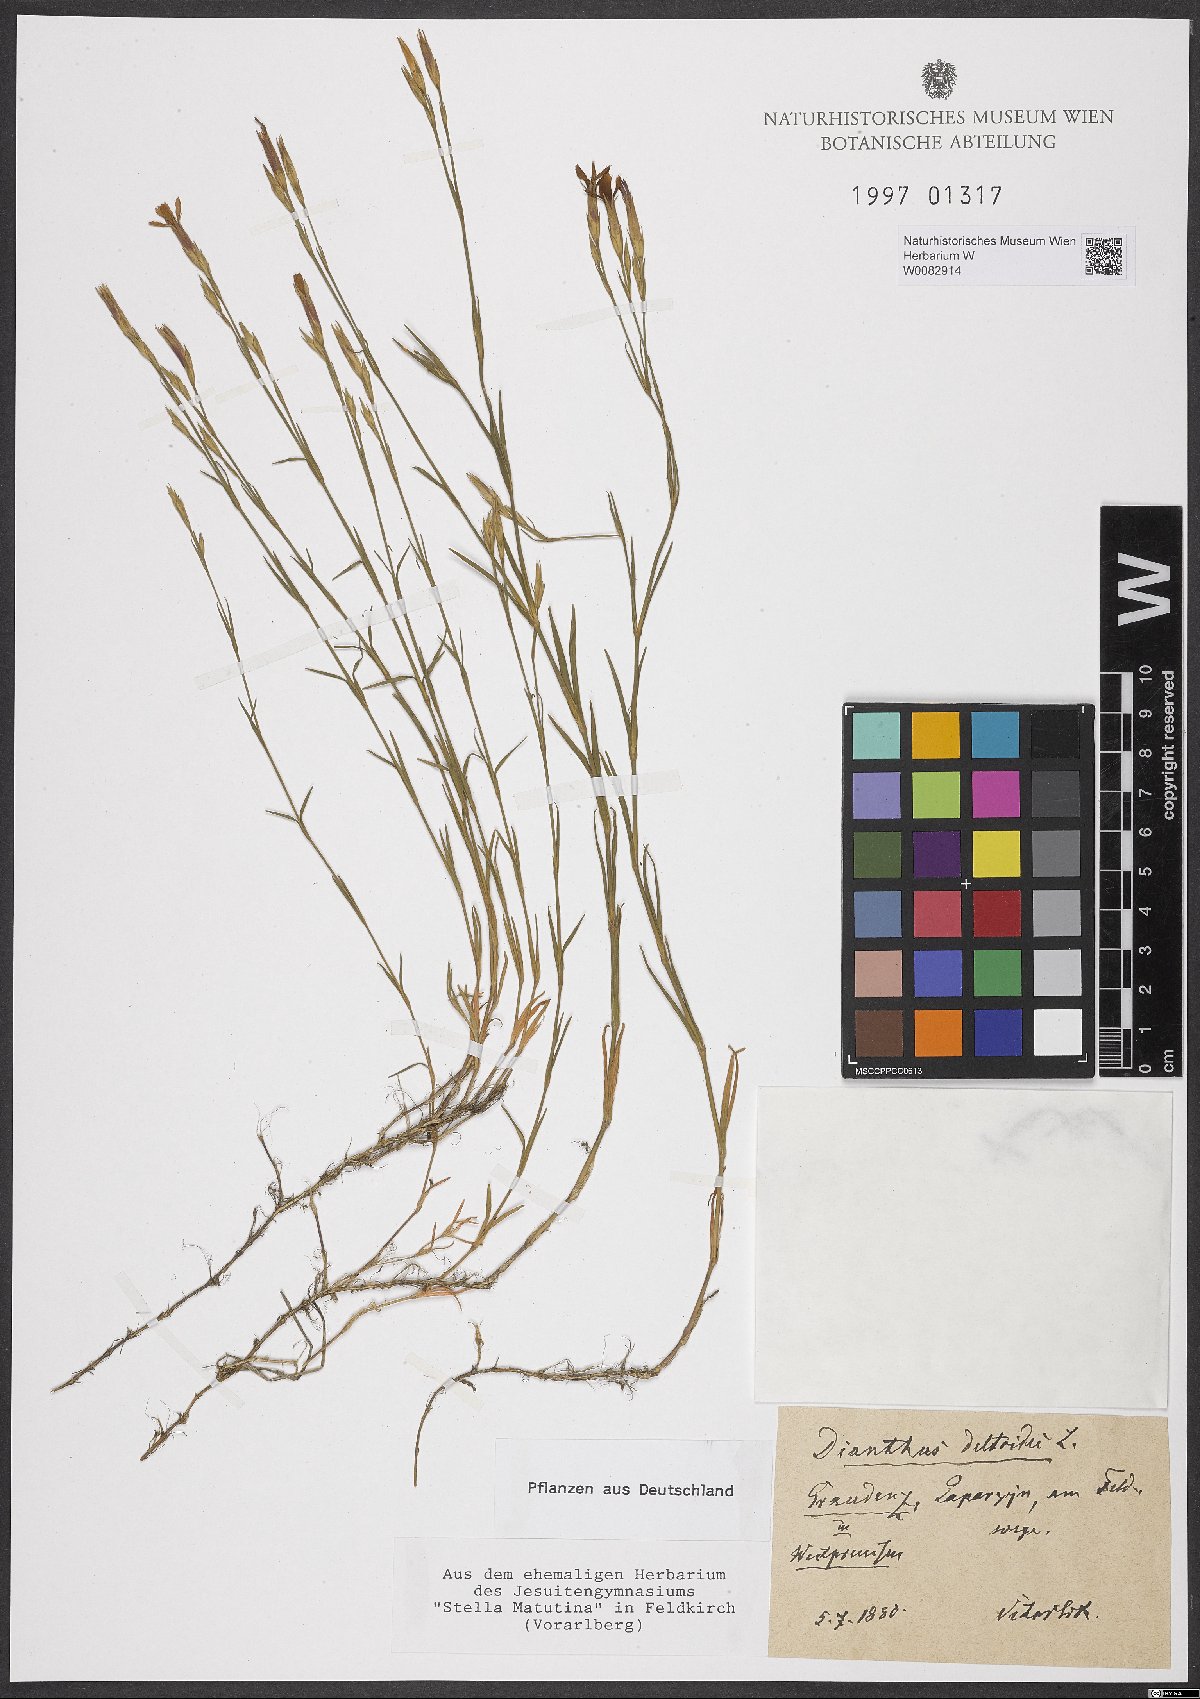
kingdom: Plantae
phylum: Tracheophyta
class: Magnoliopsida
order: Caryophyllales
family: Caryophyllaceae
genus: Dianthus
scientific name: Dianthus deltoides
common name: Maiden pink
